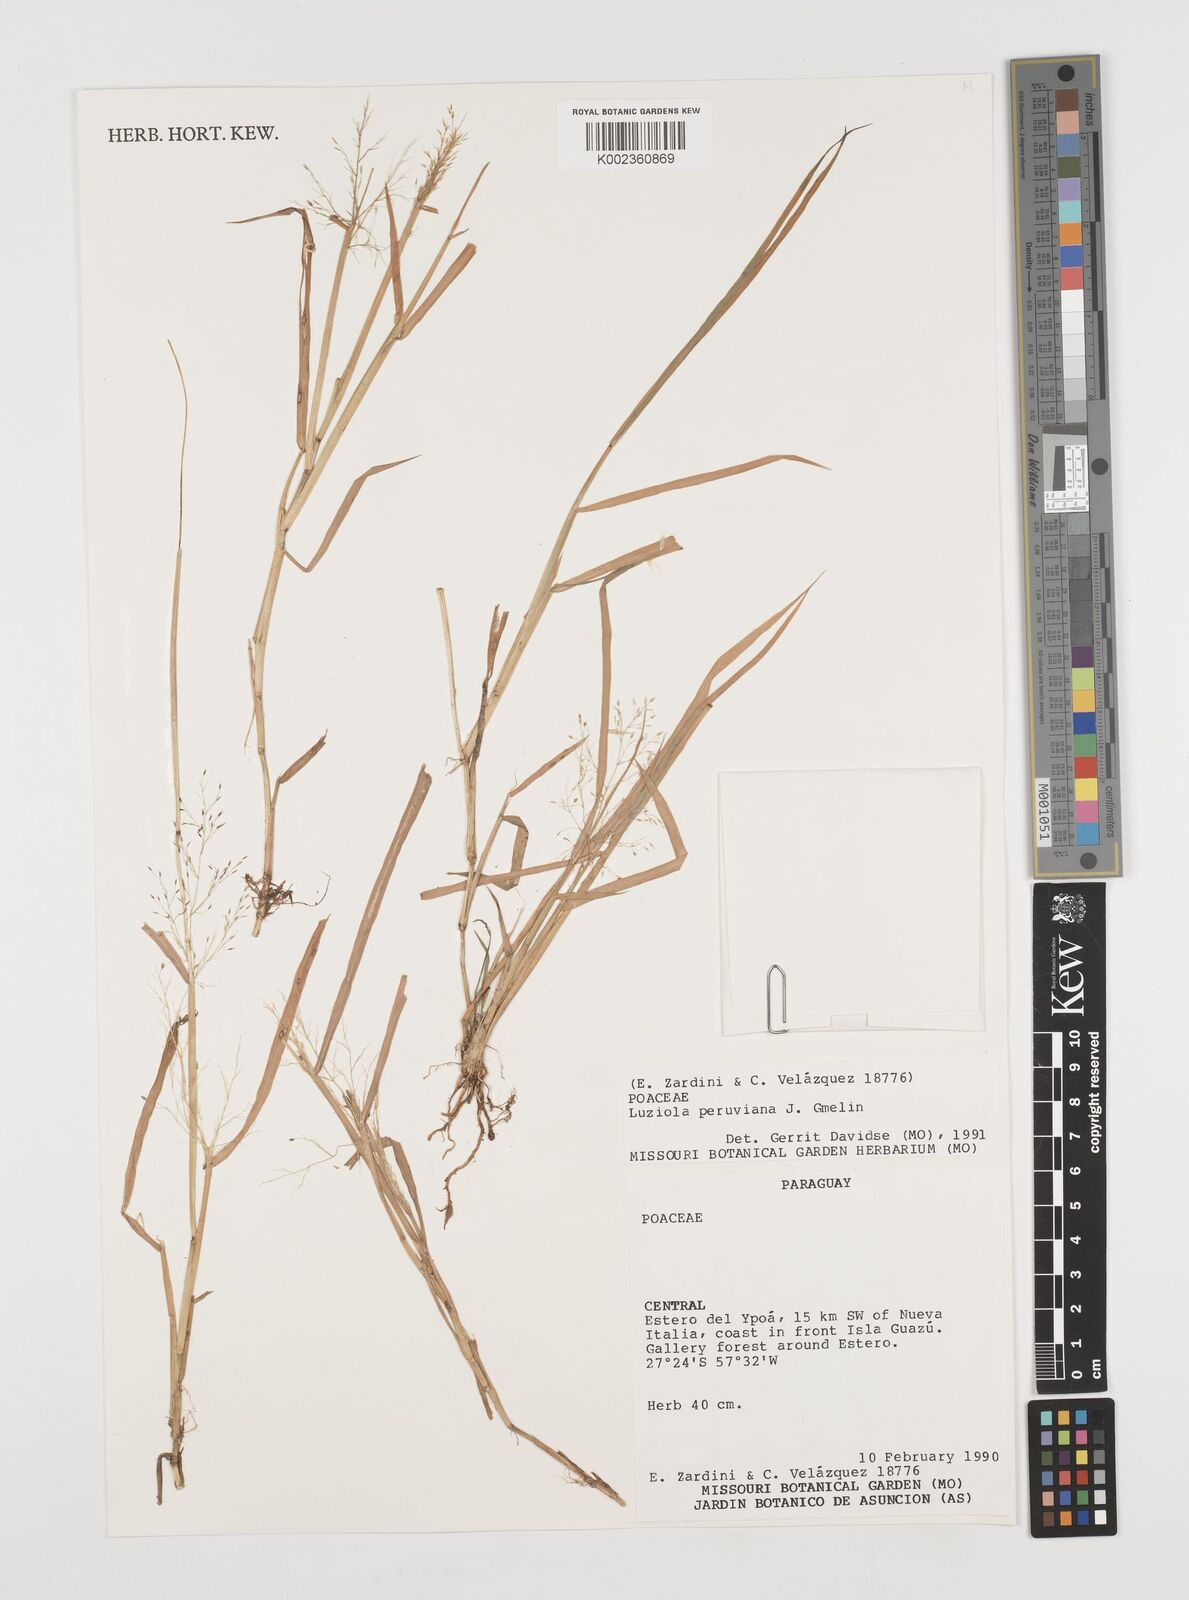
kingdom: Plantae
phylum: Tracheophyta
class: Liliopsida
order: Poales
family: Poaceae
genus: Luziola
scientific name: Luziola peruviana
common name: Peruvian watergrass
